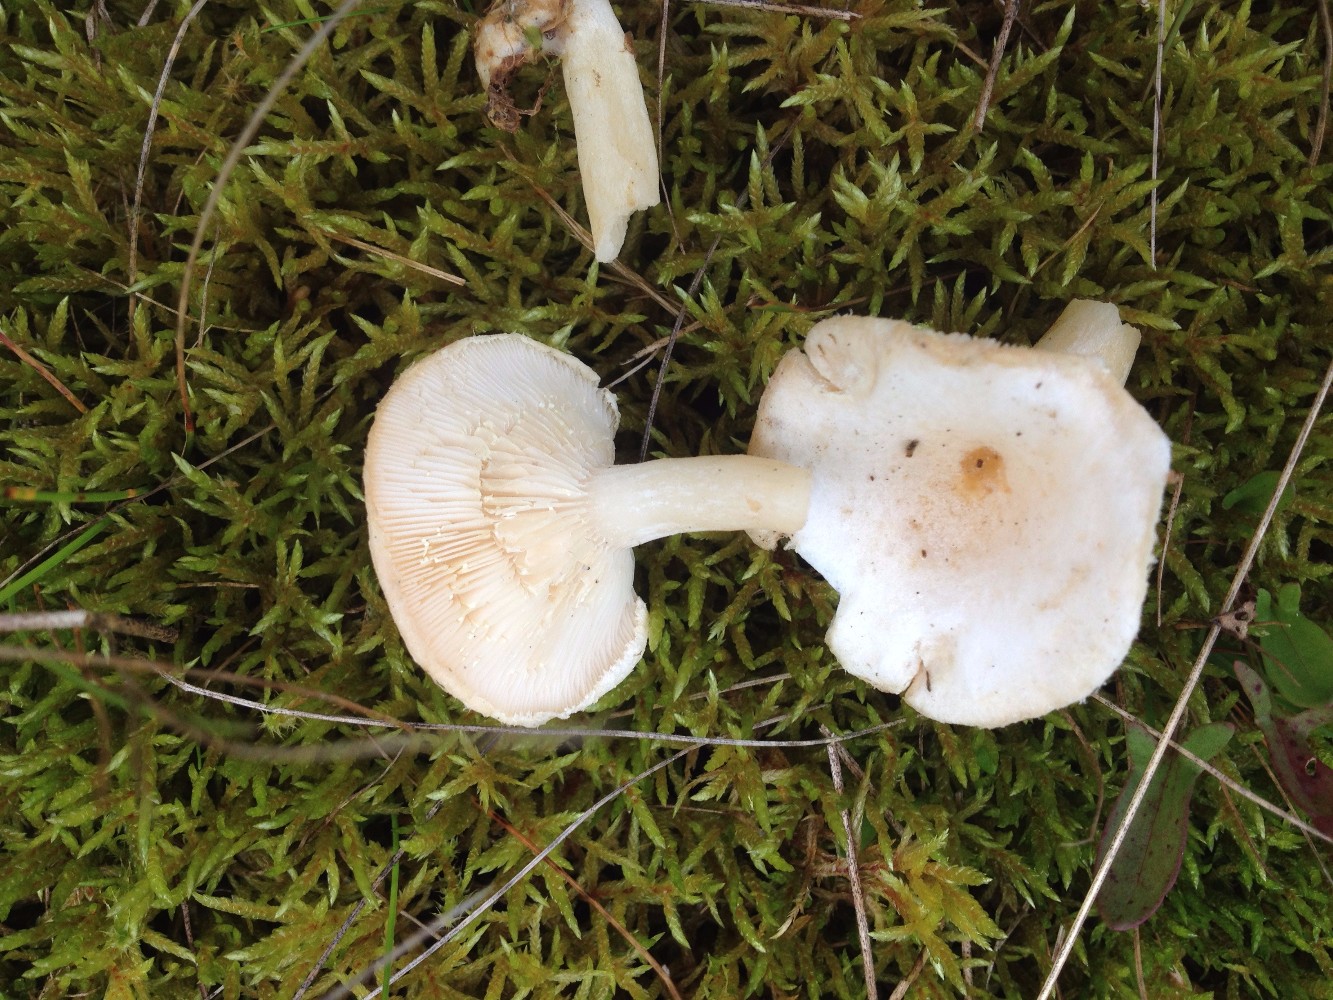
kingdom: Fungi
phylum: Basidiomycota
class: Agaricomycetes
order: Russulales
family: Russulaceae
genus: Lactarius
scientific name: Lactarius scoticus
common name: tørve-mælkehat
